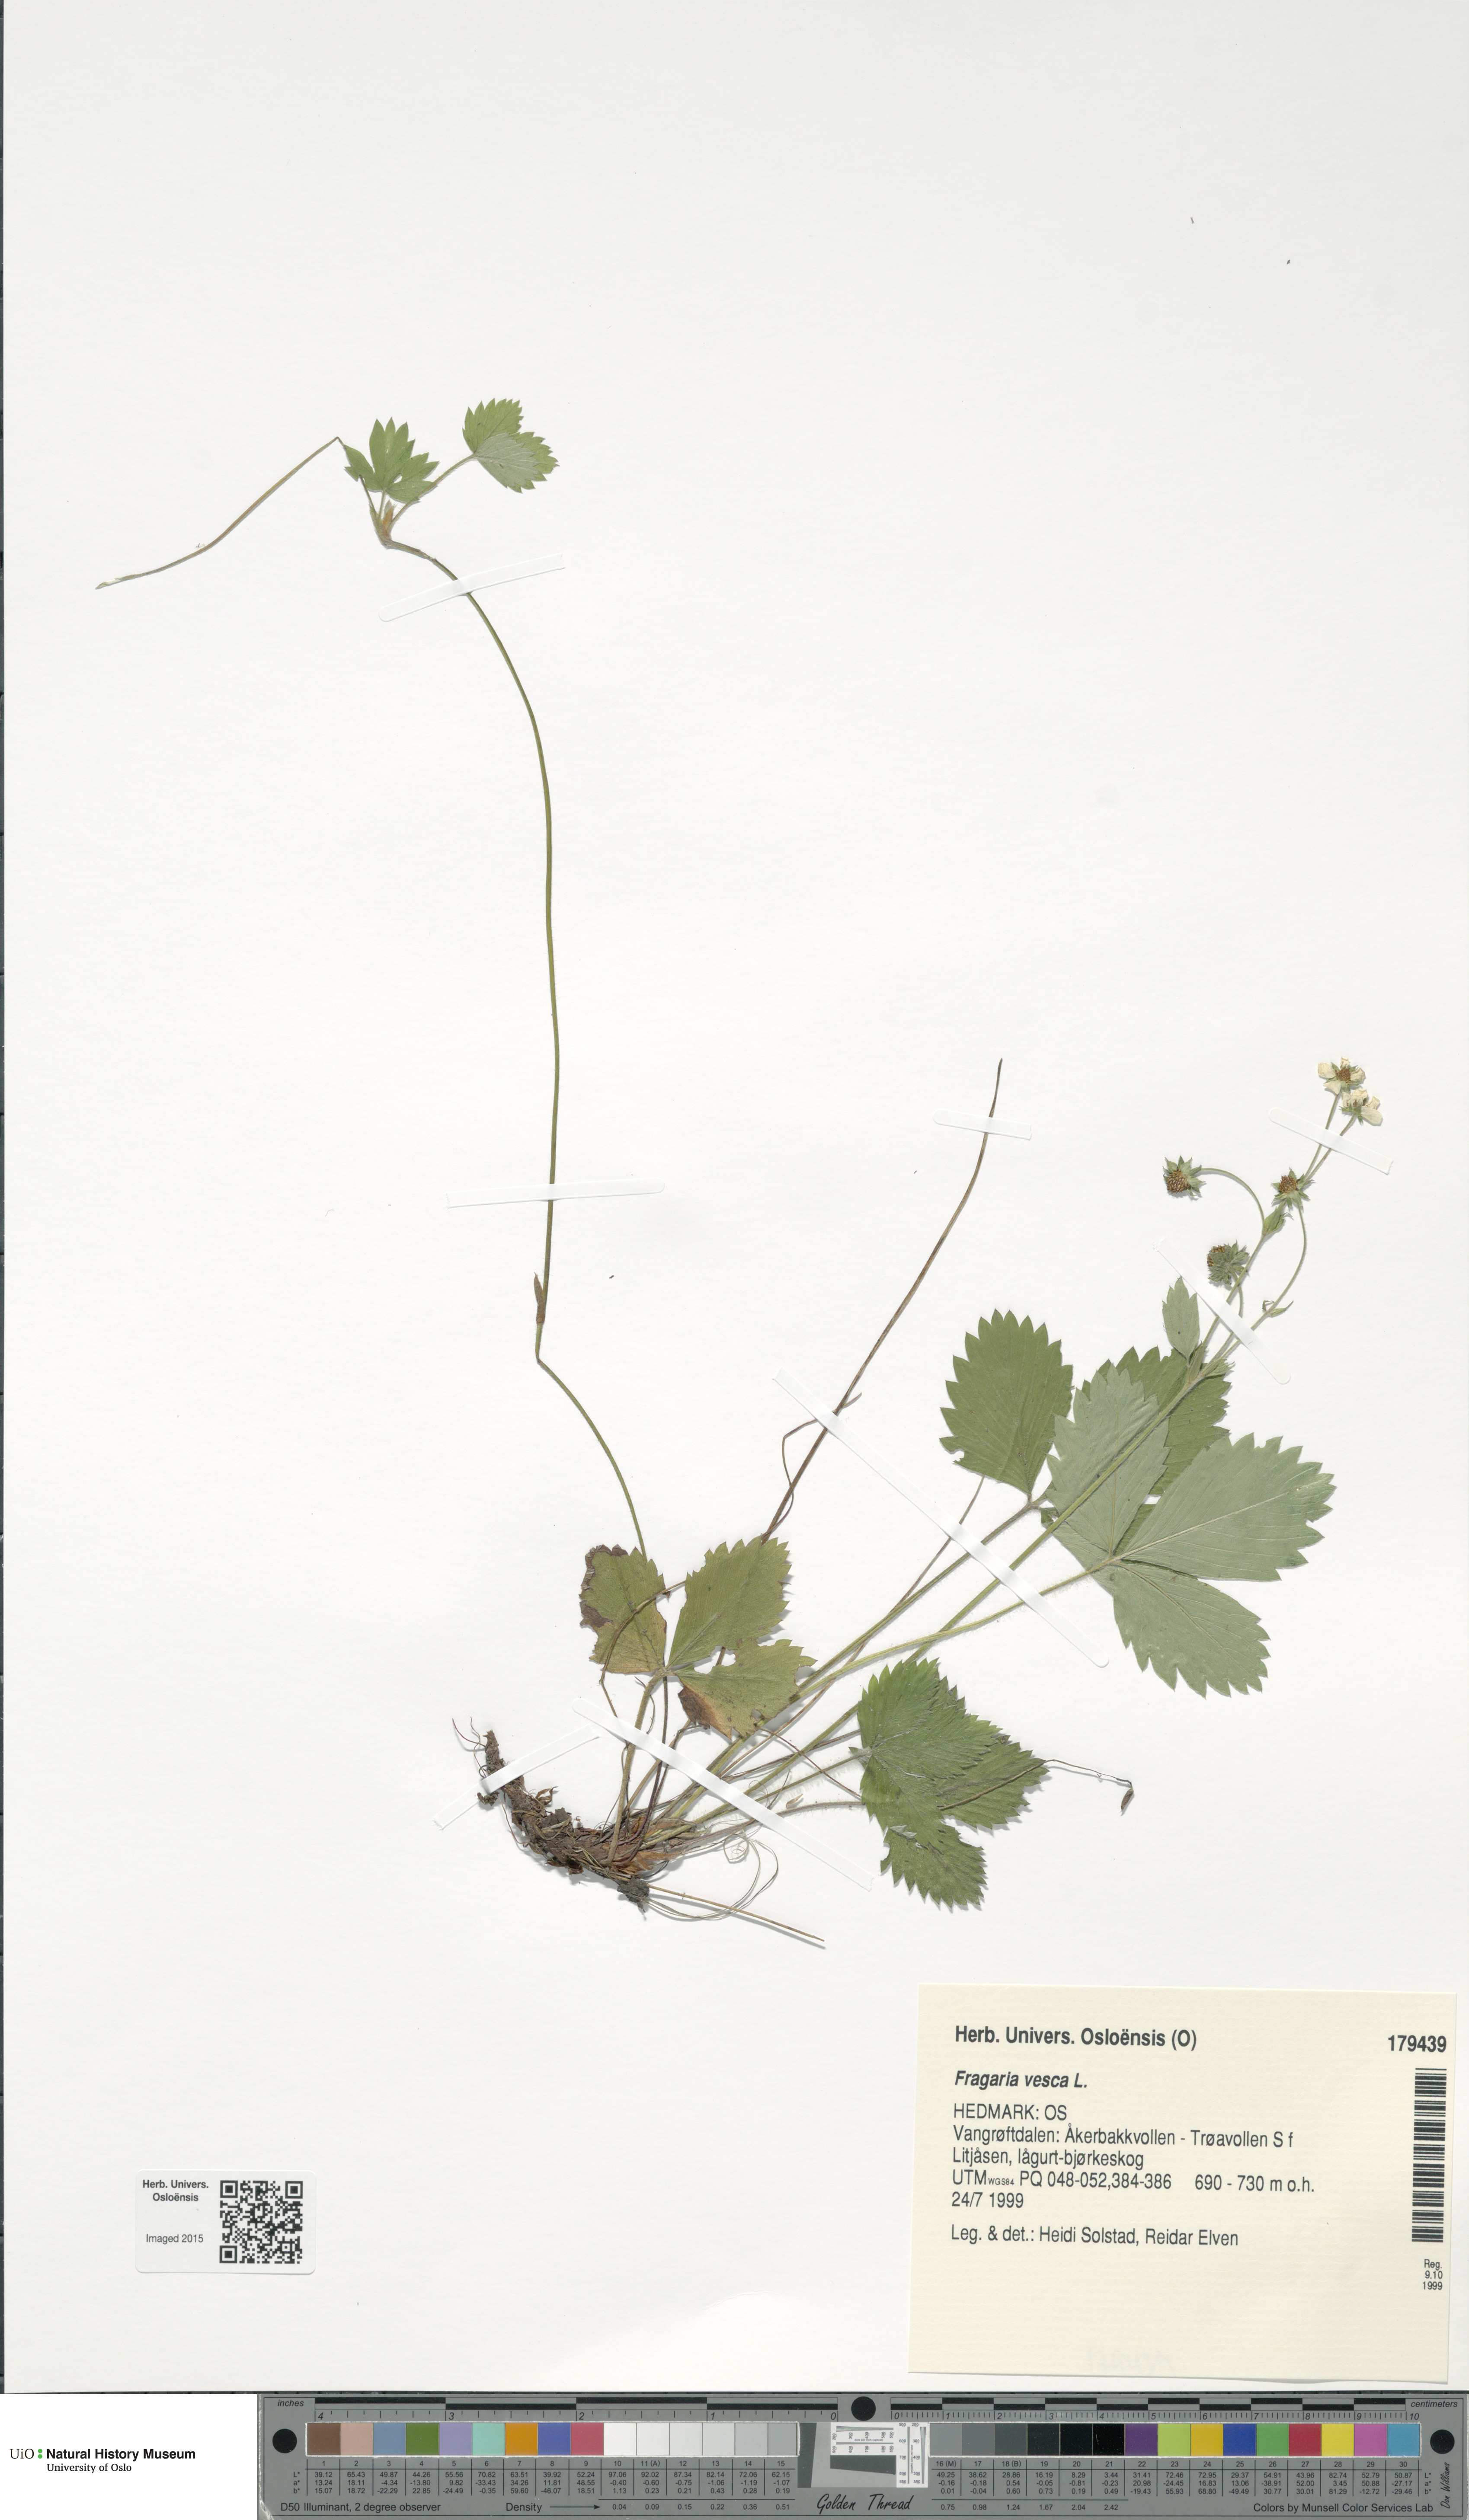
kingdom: Plantae
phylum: Tracheophyta
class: Magnoliopsida
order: Rosales
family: Rosaceae
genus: Fragaria
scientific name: Fragaria vesca
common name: Wild strawberry
